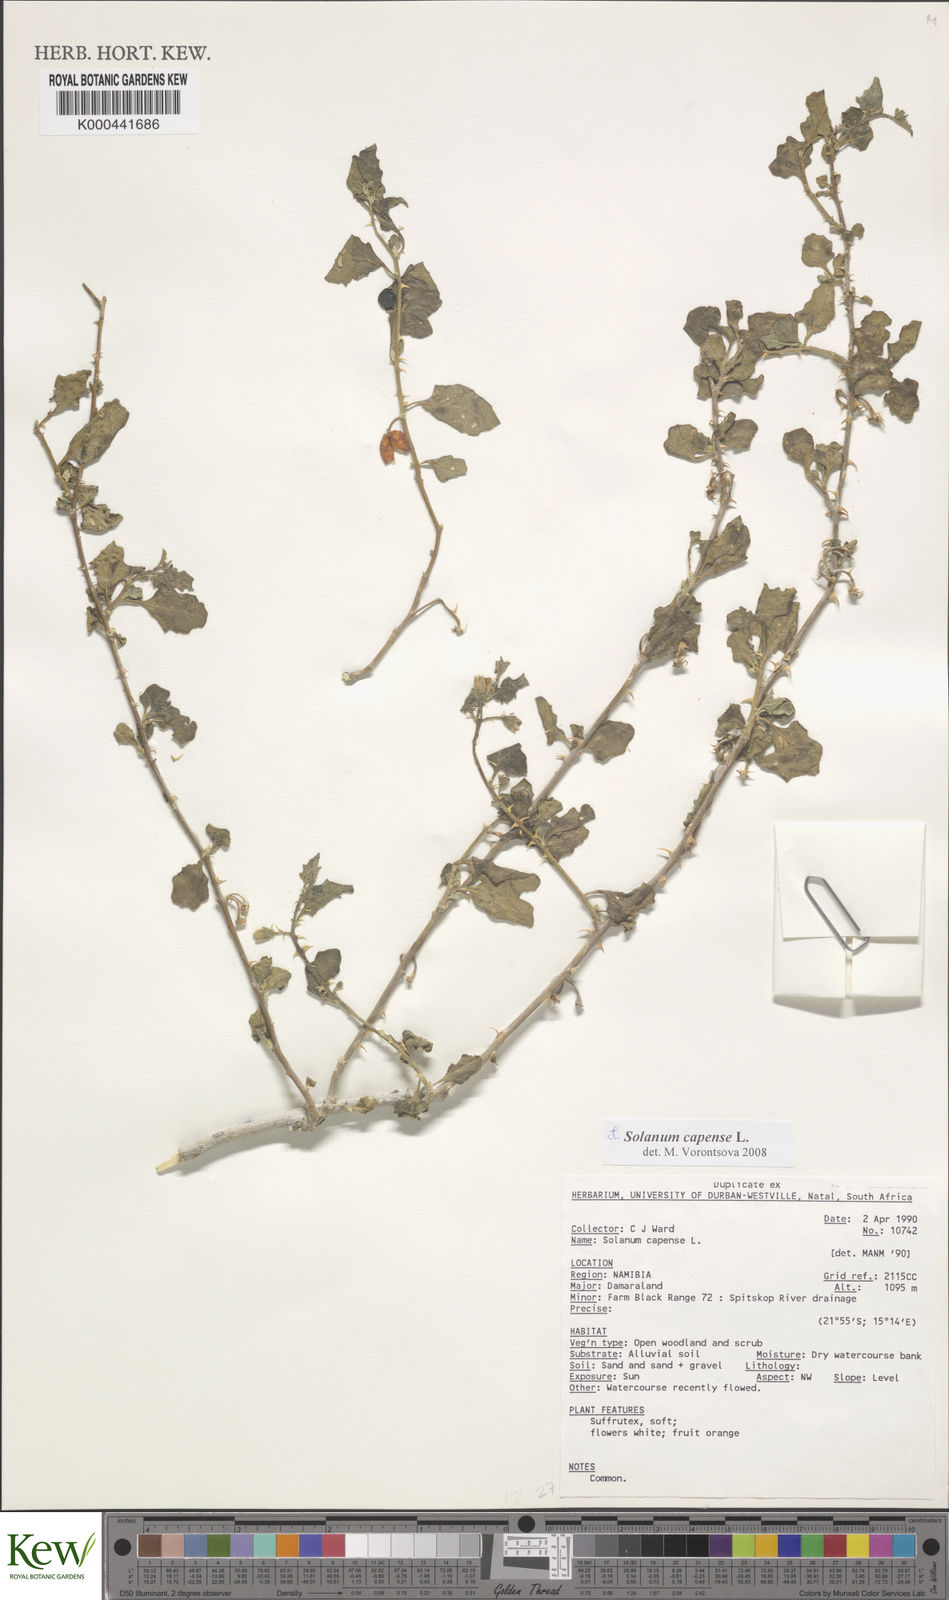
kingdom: Plantae
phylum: Tracheophyta
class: Magnoliopsida
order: Solanales
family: Solanaceae
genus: Solanum
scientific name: Solanum capense
